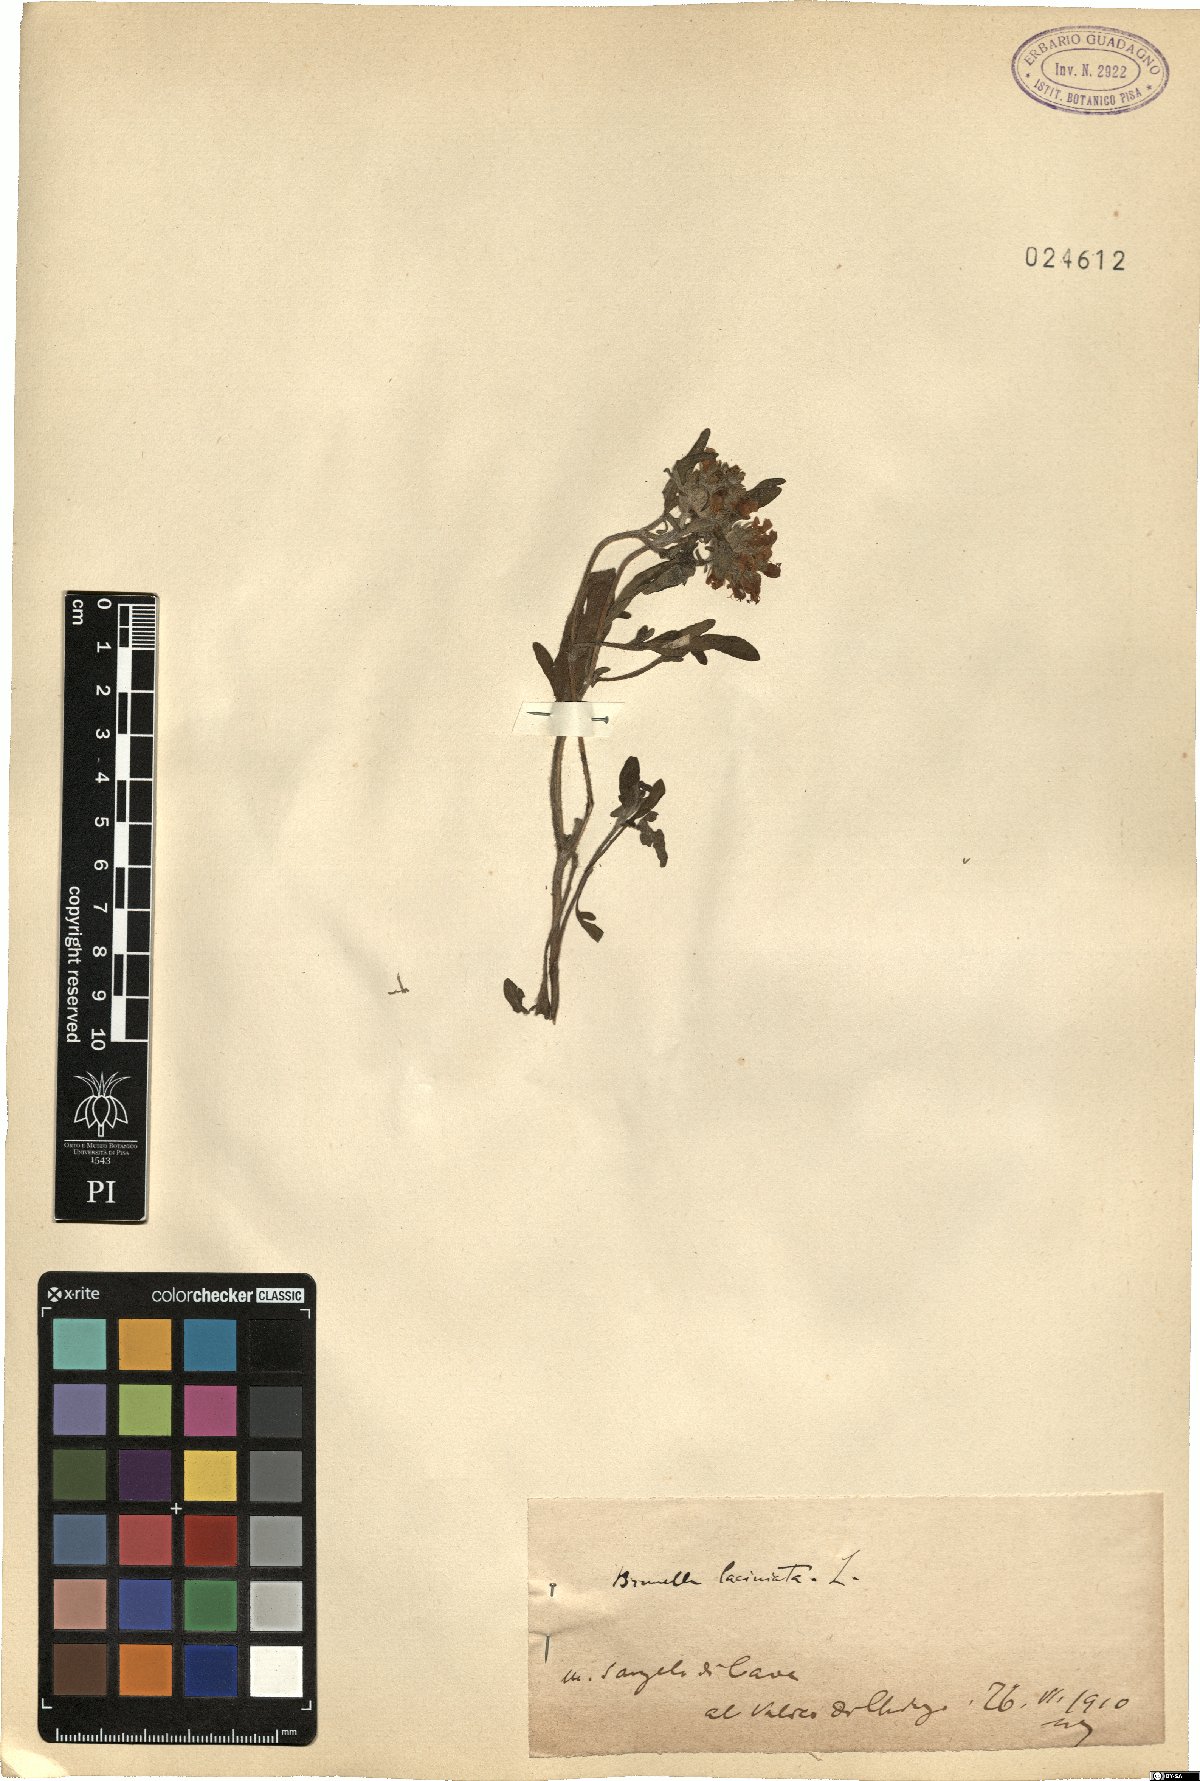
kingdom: Plantae
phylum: Tracheophyta
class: Magnoliopsida
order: Lamiales
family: Lamiaceae
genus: Prunella
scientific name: Prunella laciniata
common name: Cut-leaved selfheal
